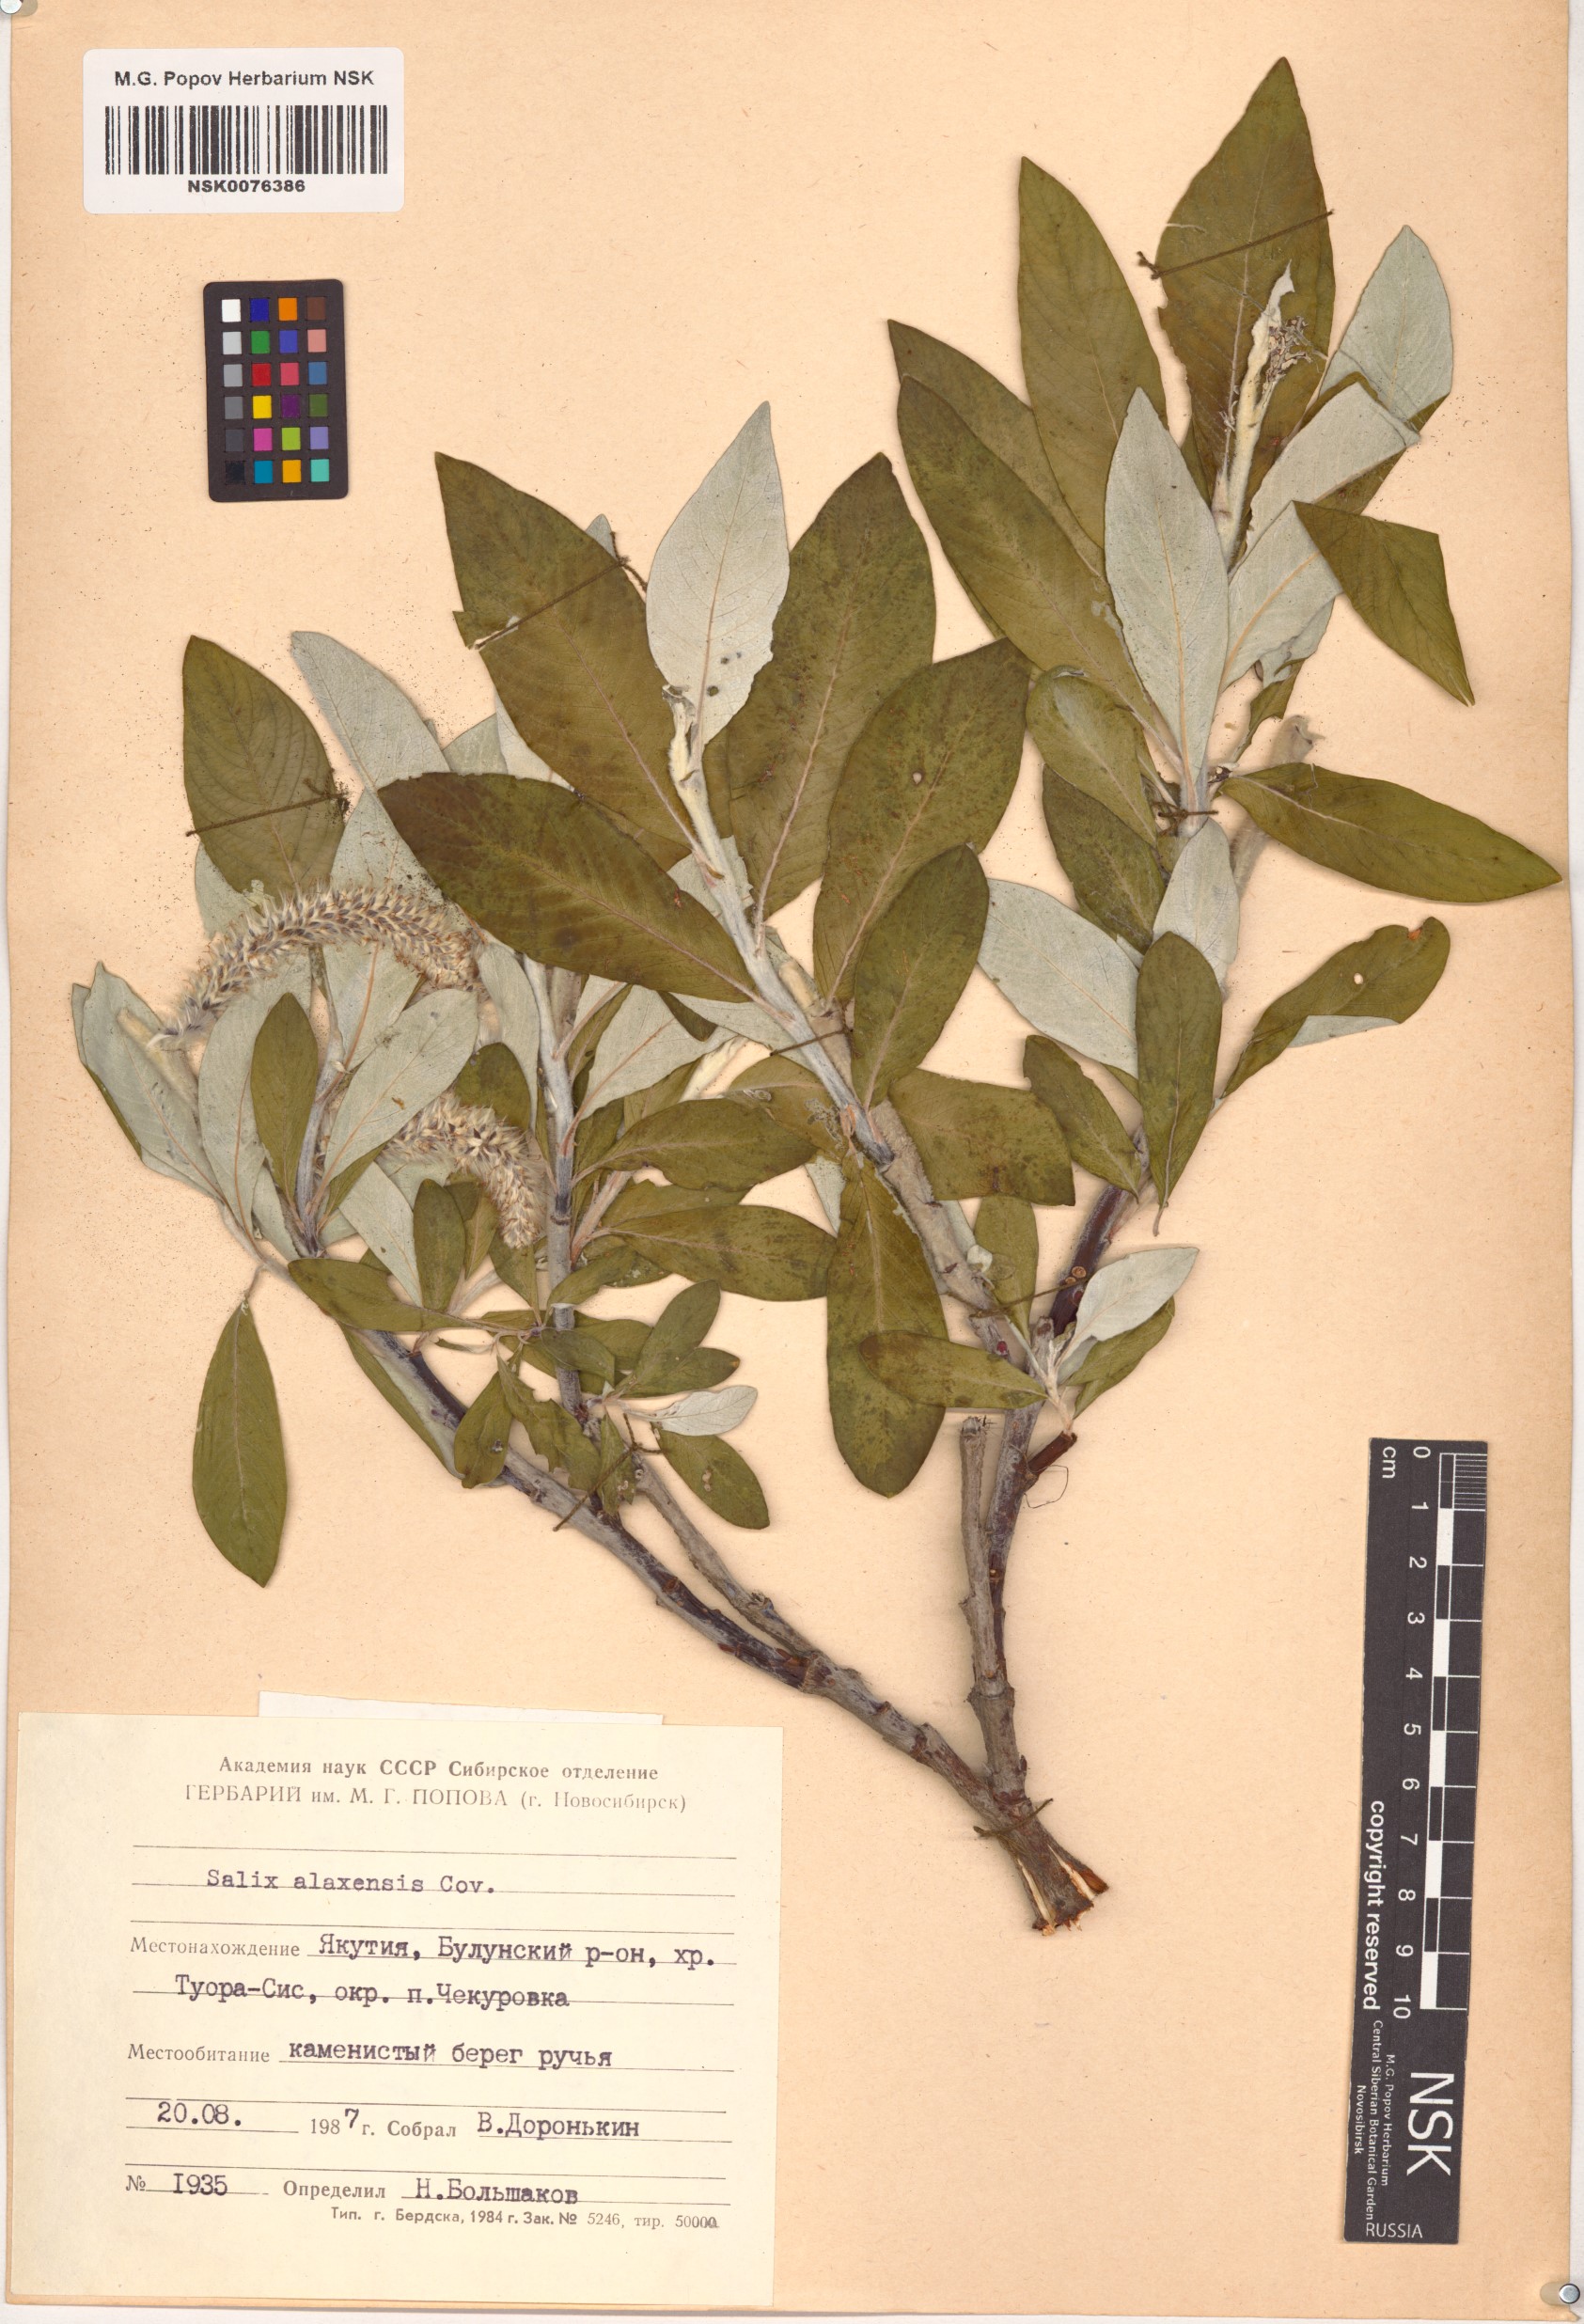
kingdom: Plantae
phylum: Tracheophyta
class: Magnoliopsida
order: Malpighiales
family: Salicaceae
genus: Salix
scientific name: Salix alaxensis
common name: Feltleaf willow
